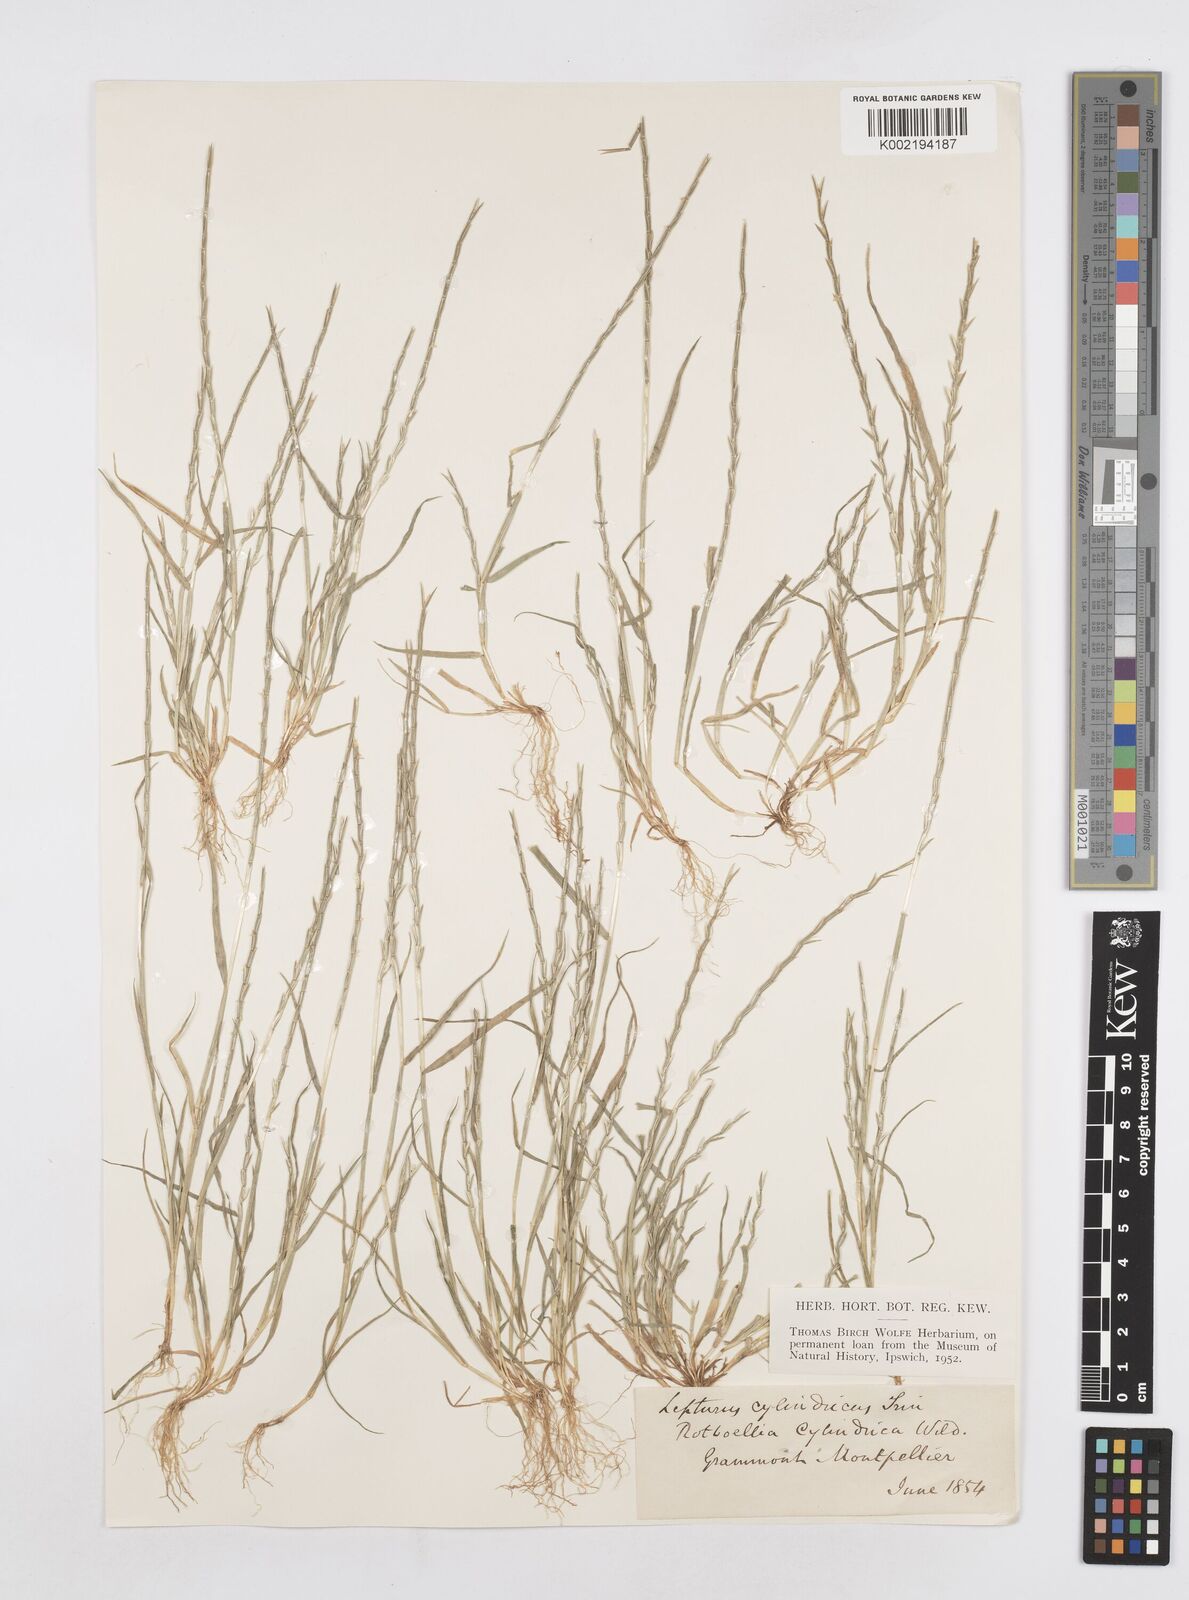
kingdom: Plantae
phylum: Tracheophyta
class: Liliopsida
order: Poales
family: Poaceae
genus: Parapholis
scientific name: Parapholis cylindrica
